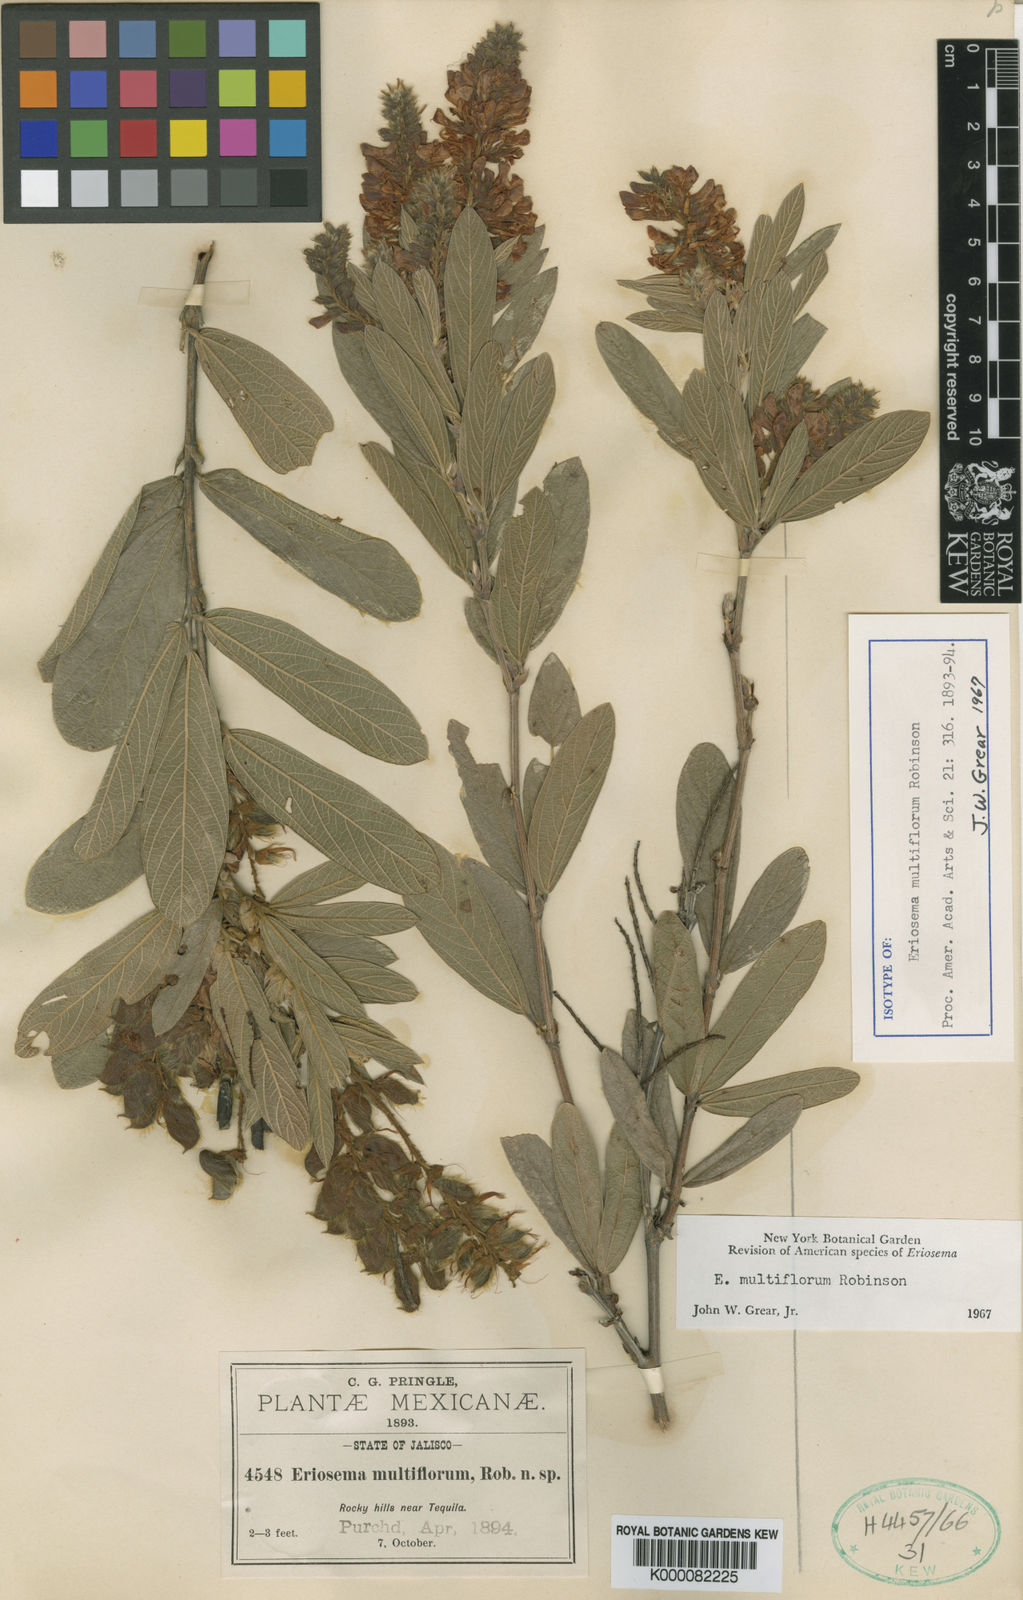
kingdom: Plantae
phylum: Tracheophyta
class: Magnoliopsida
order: Fabales
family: Fabaceae
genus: Eriosema
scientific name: Eriosema
